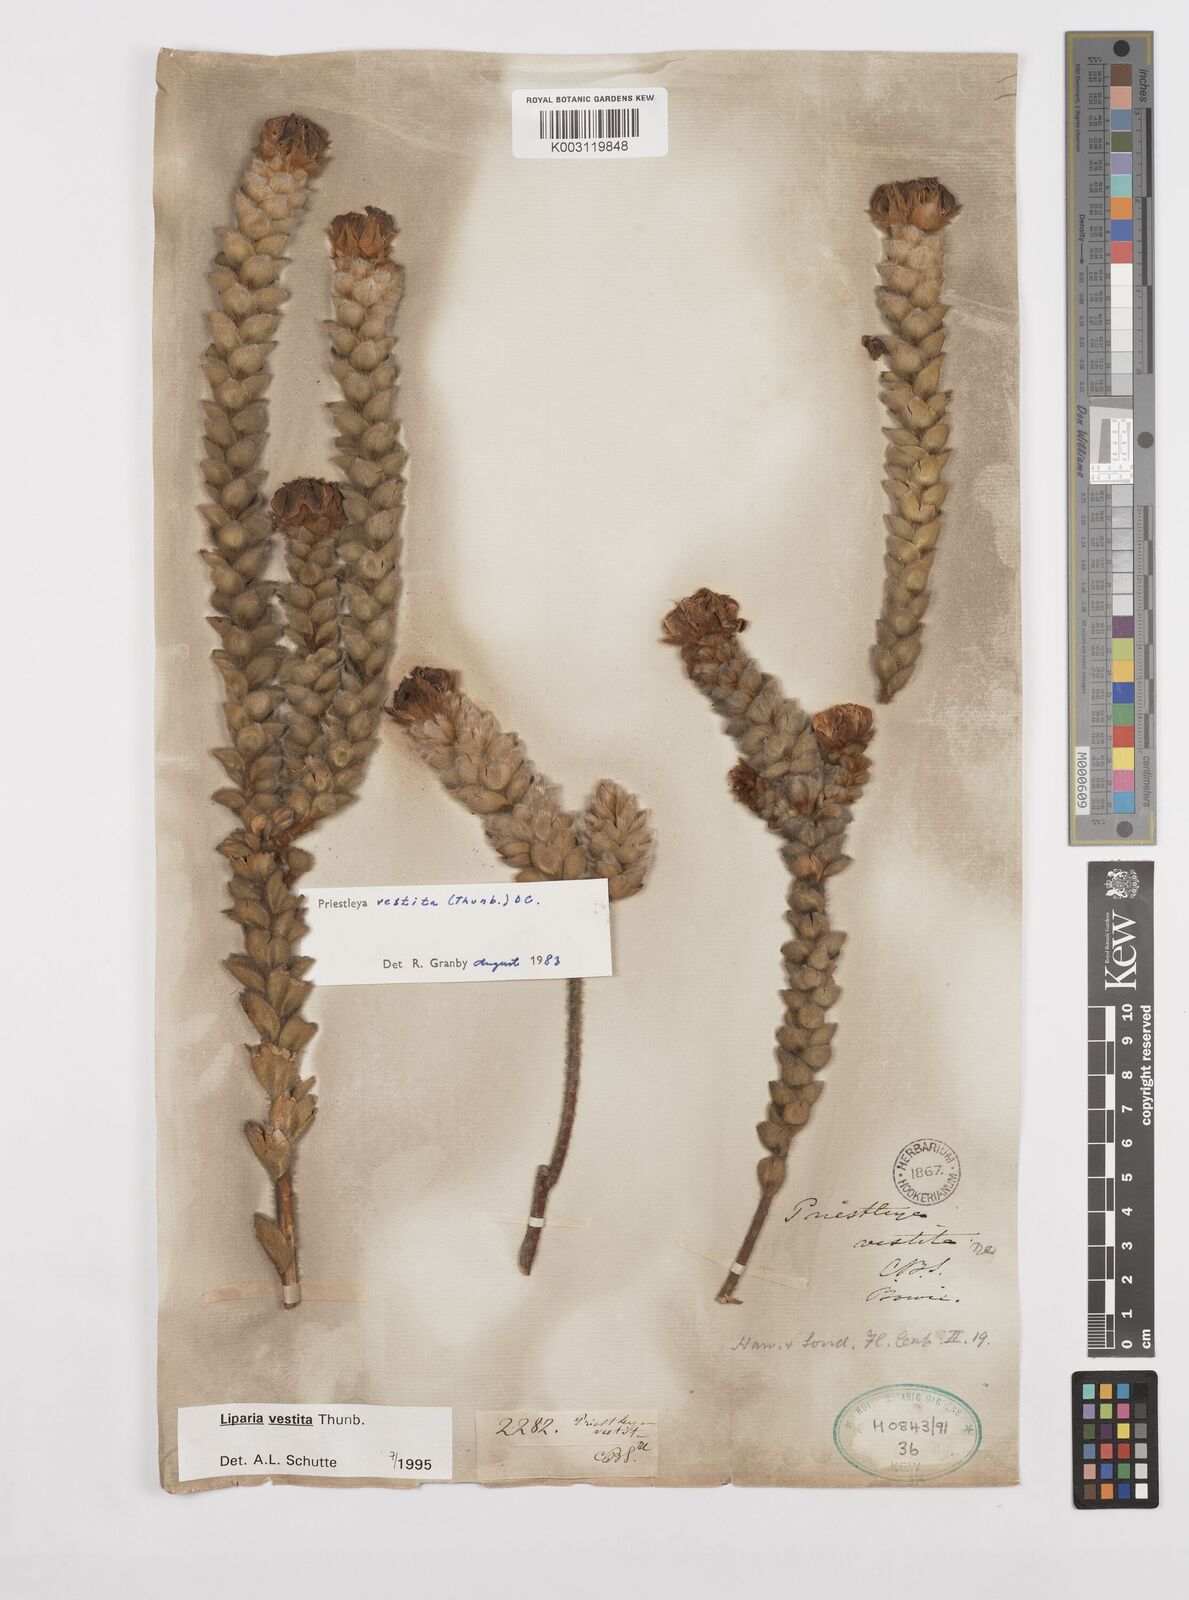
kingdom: Plantae
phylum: Tracheophyta
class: Magnoliopsida
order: Fabales
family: Fabaceae
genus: Liparia
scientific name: Liparia vestita
